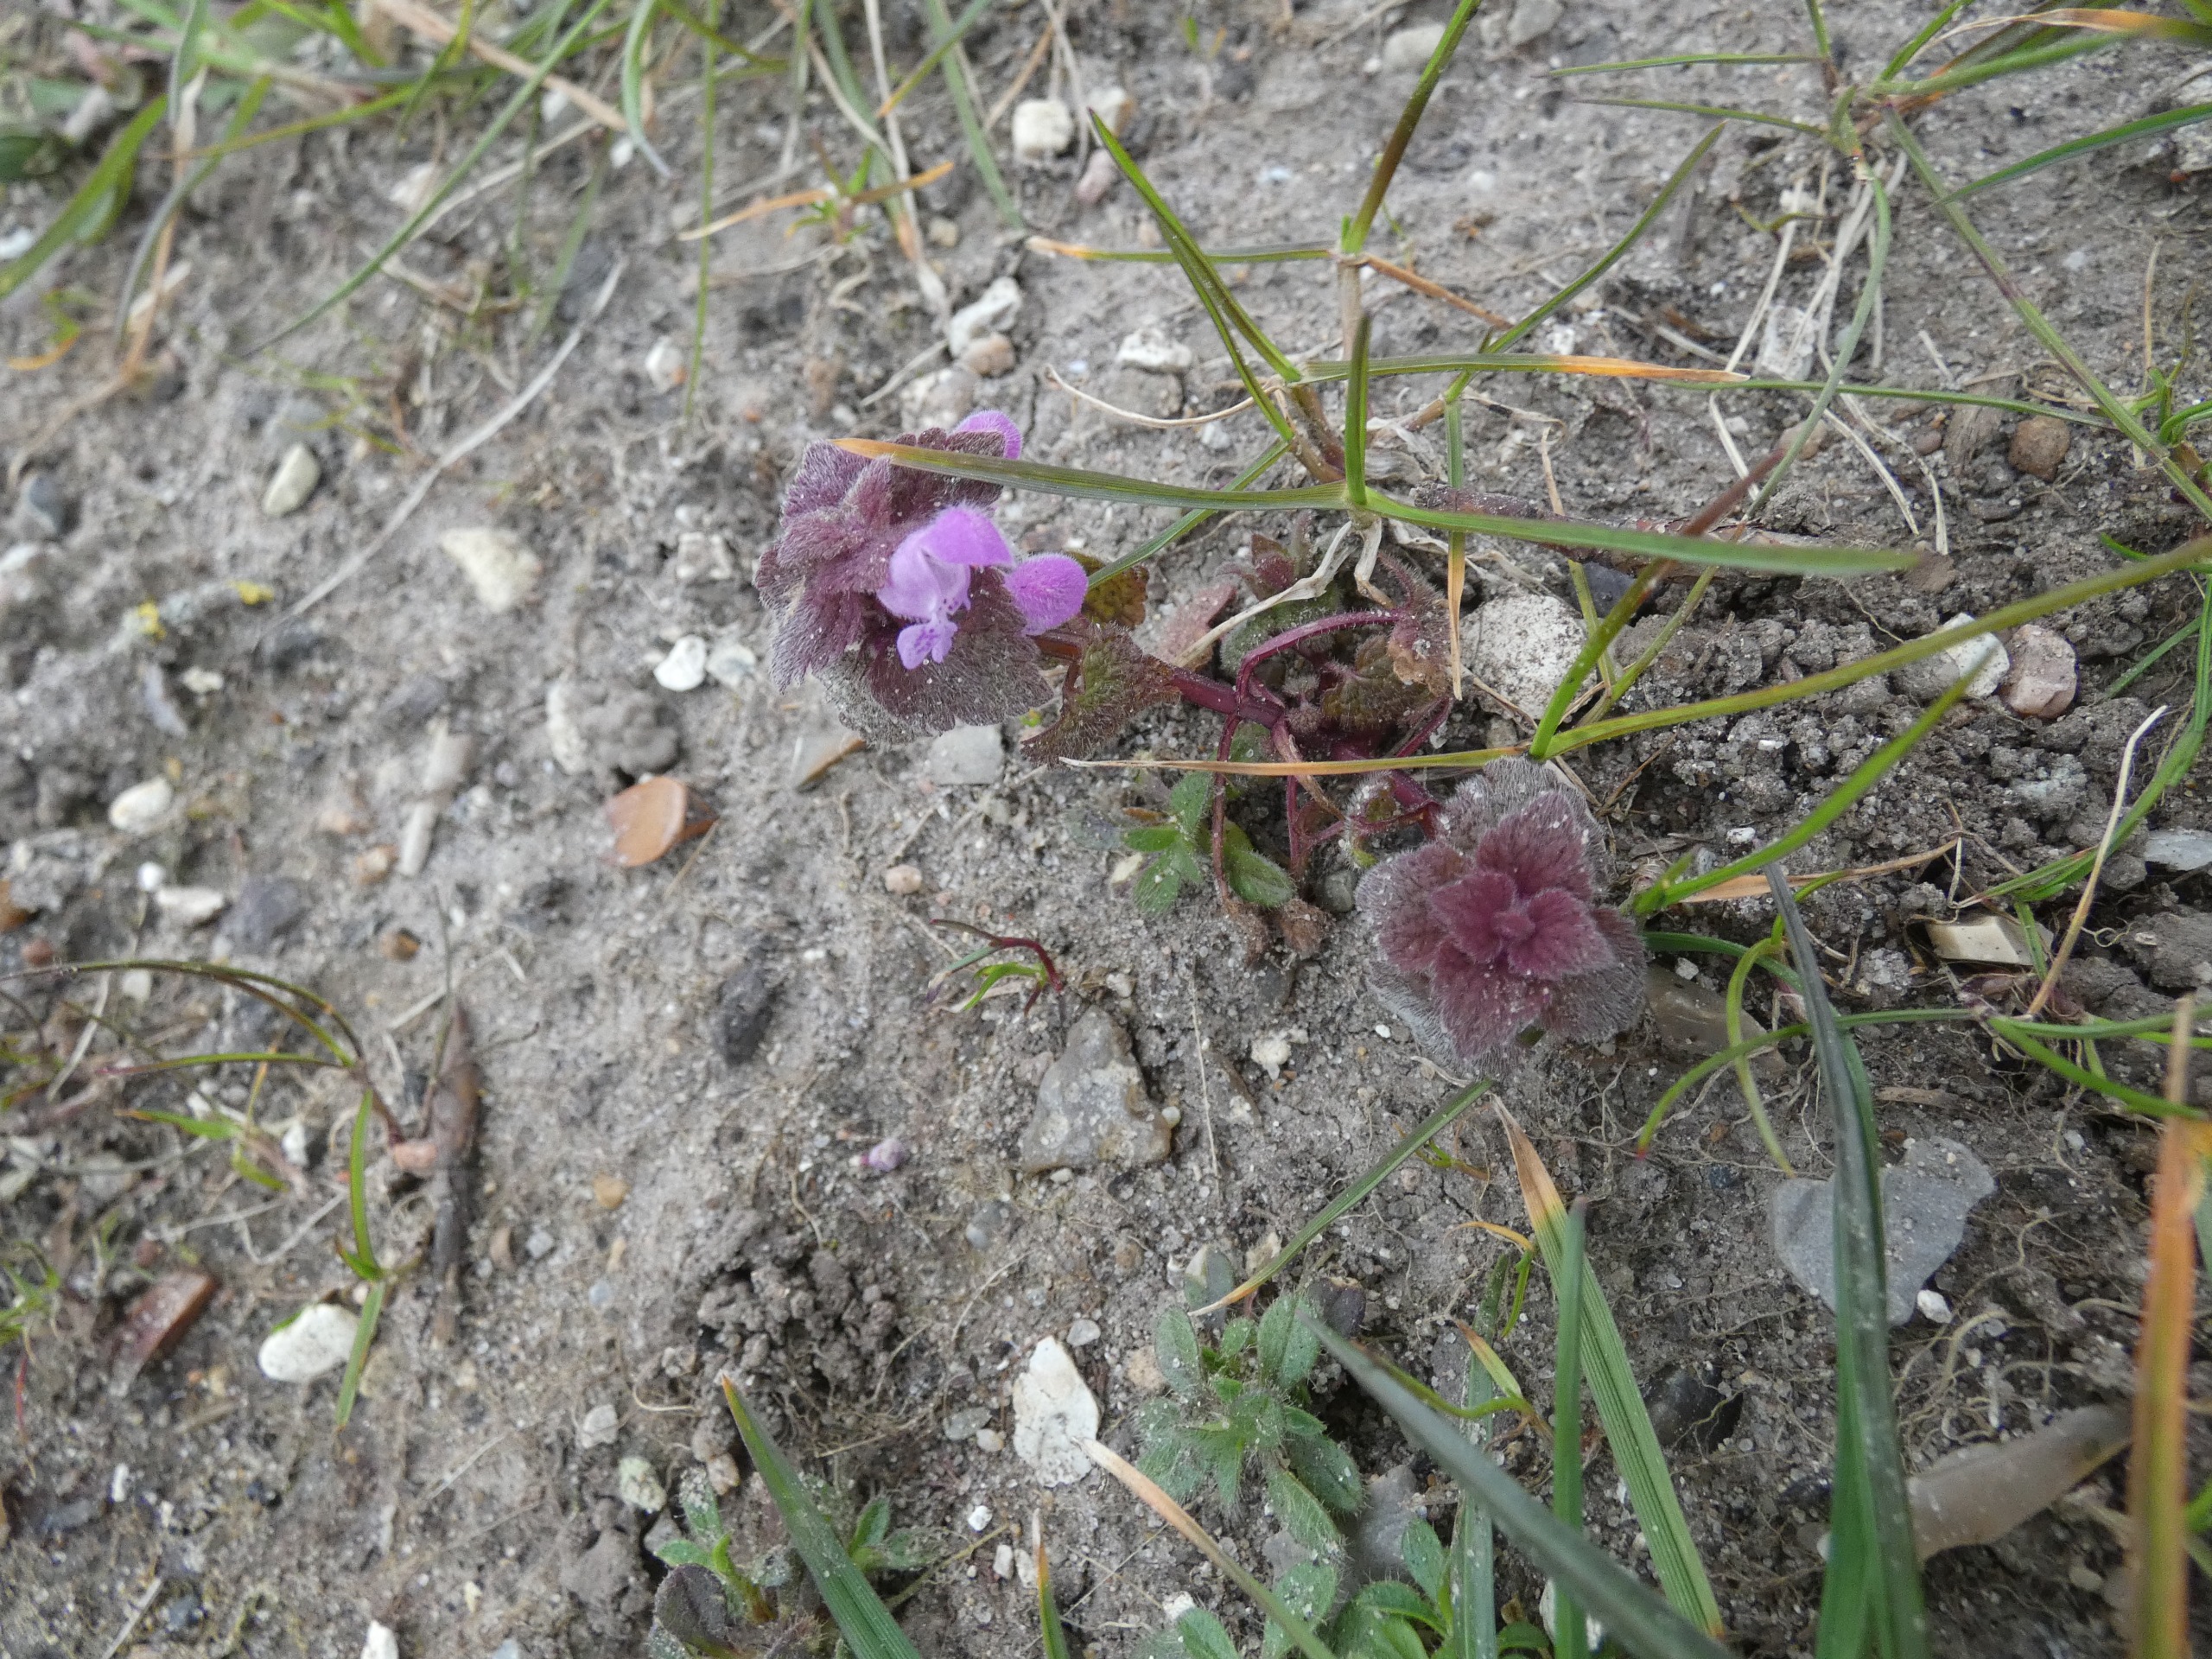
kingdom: Plantae
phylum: Tracheophyta
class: Magnoliopsida
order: Lamiales
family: Lamiaceae
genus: Lamium
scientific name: Lamium purpureum
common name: Rød tvetand
